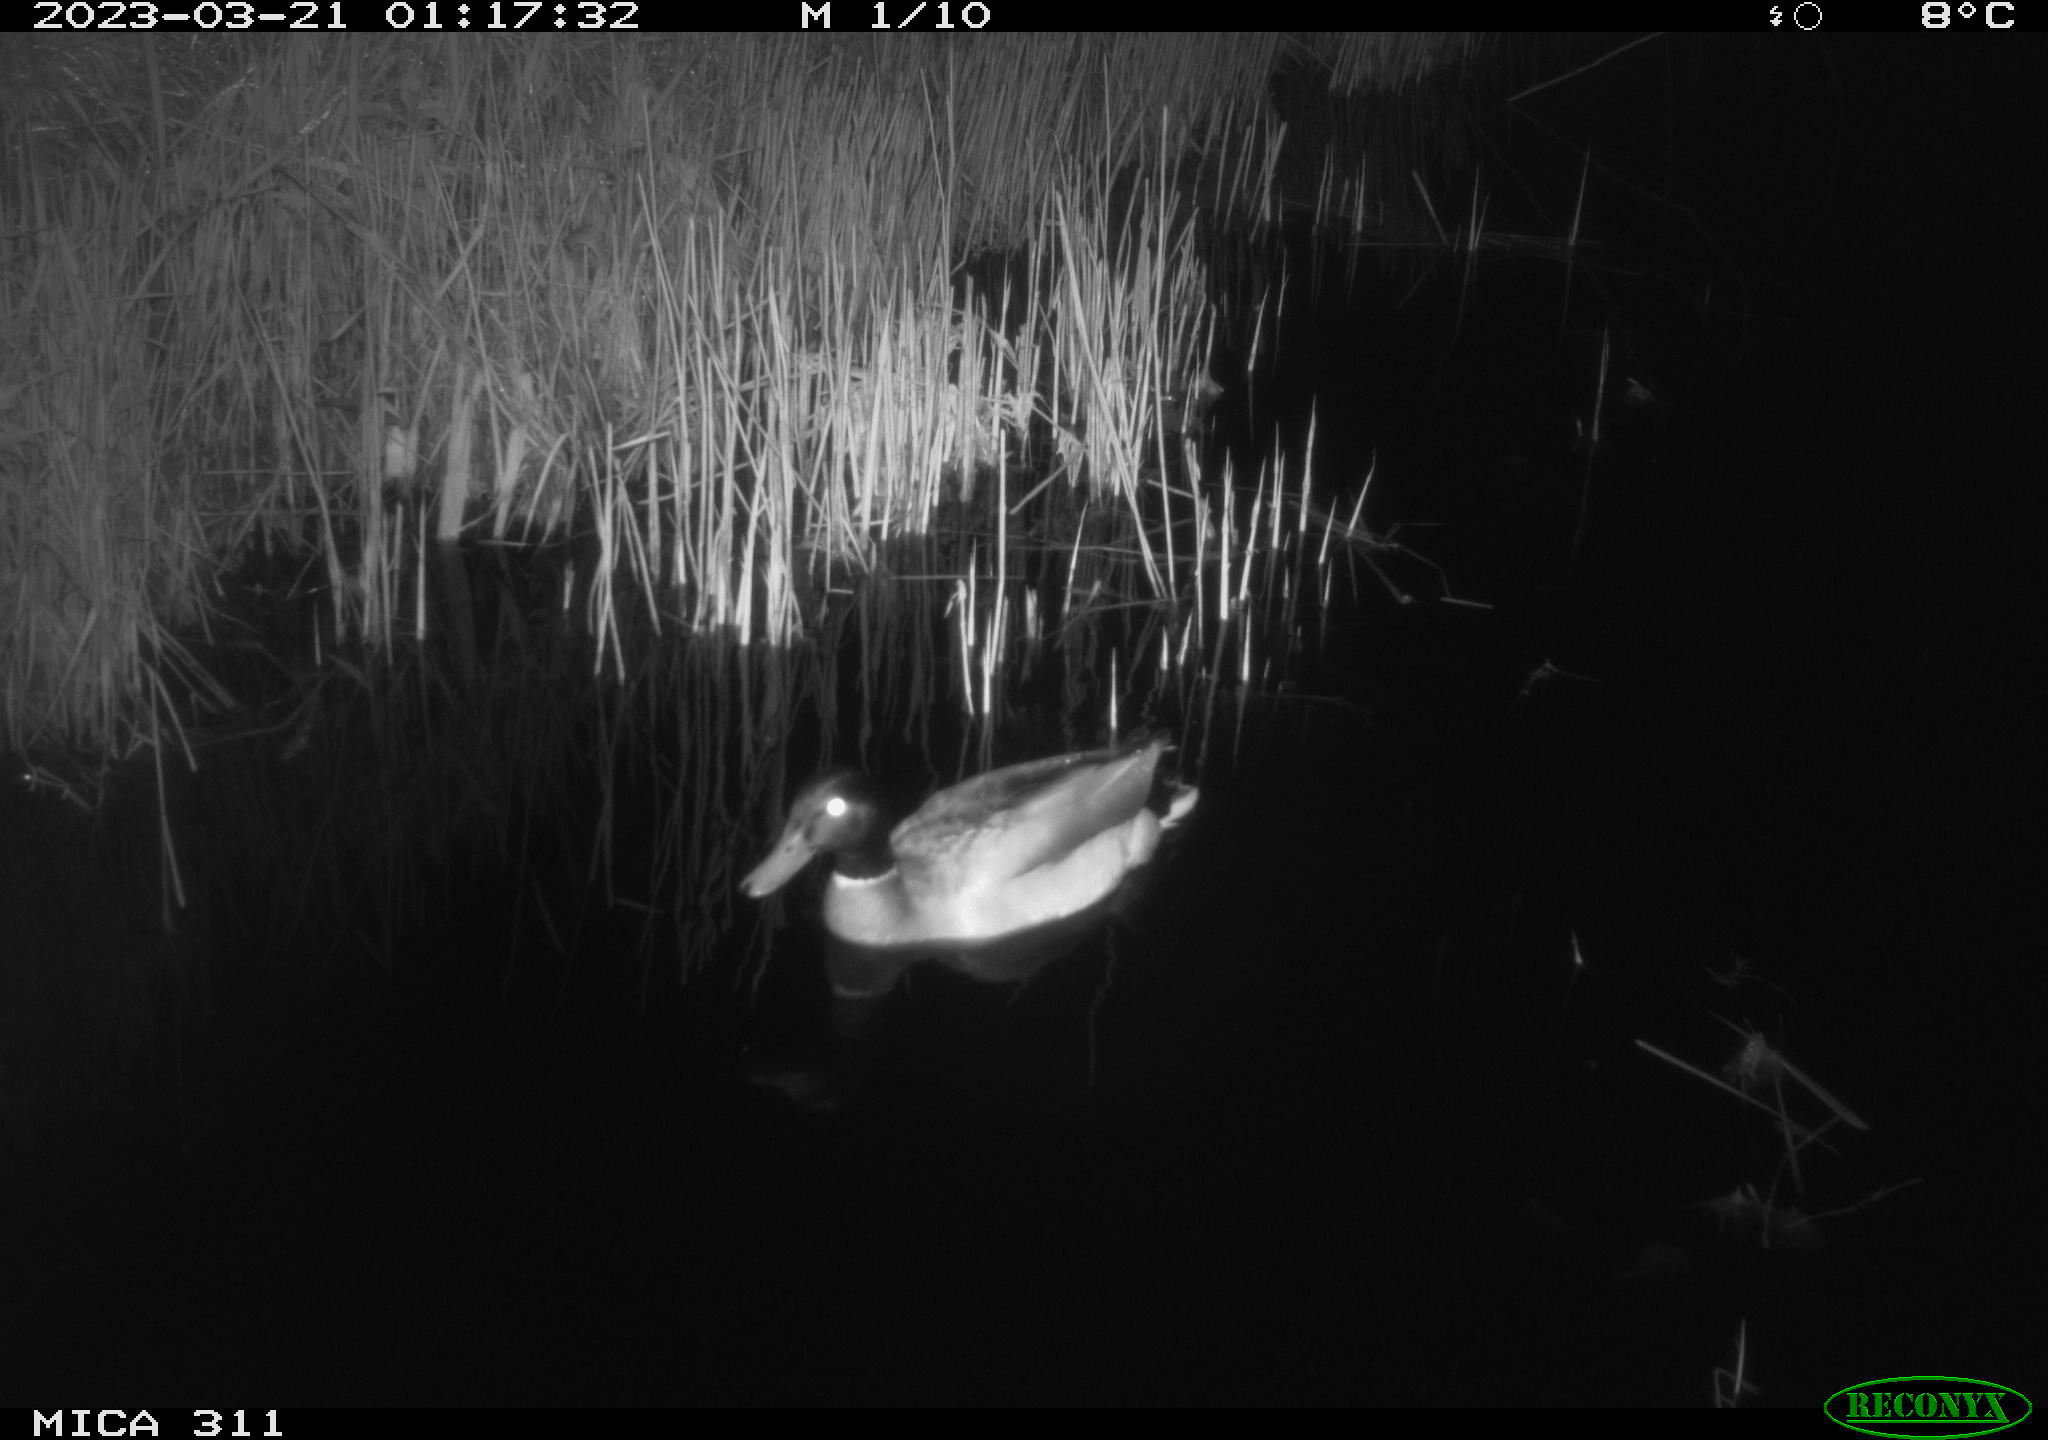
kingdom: Animalia
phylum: Chordata
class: Aves
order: Anseriformes
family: Anatidae
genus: Anas
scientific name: Anas
